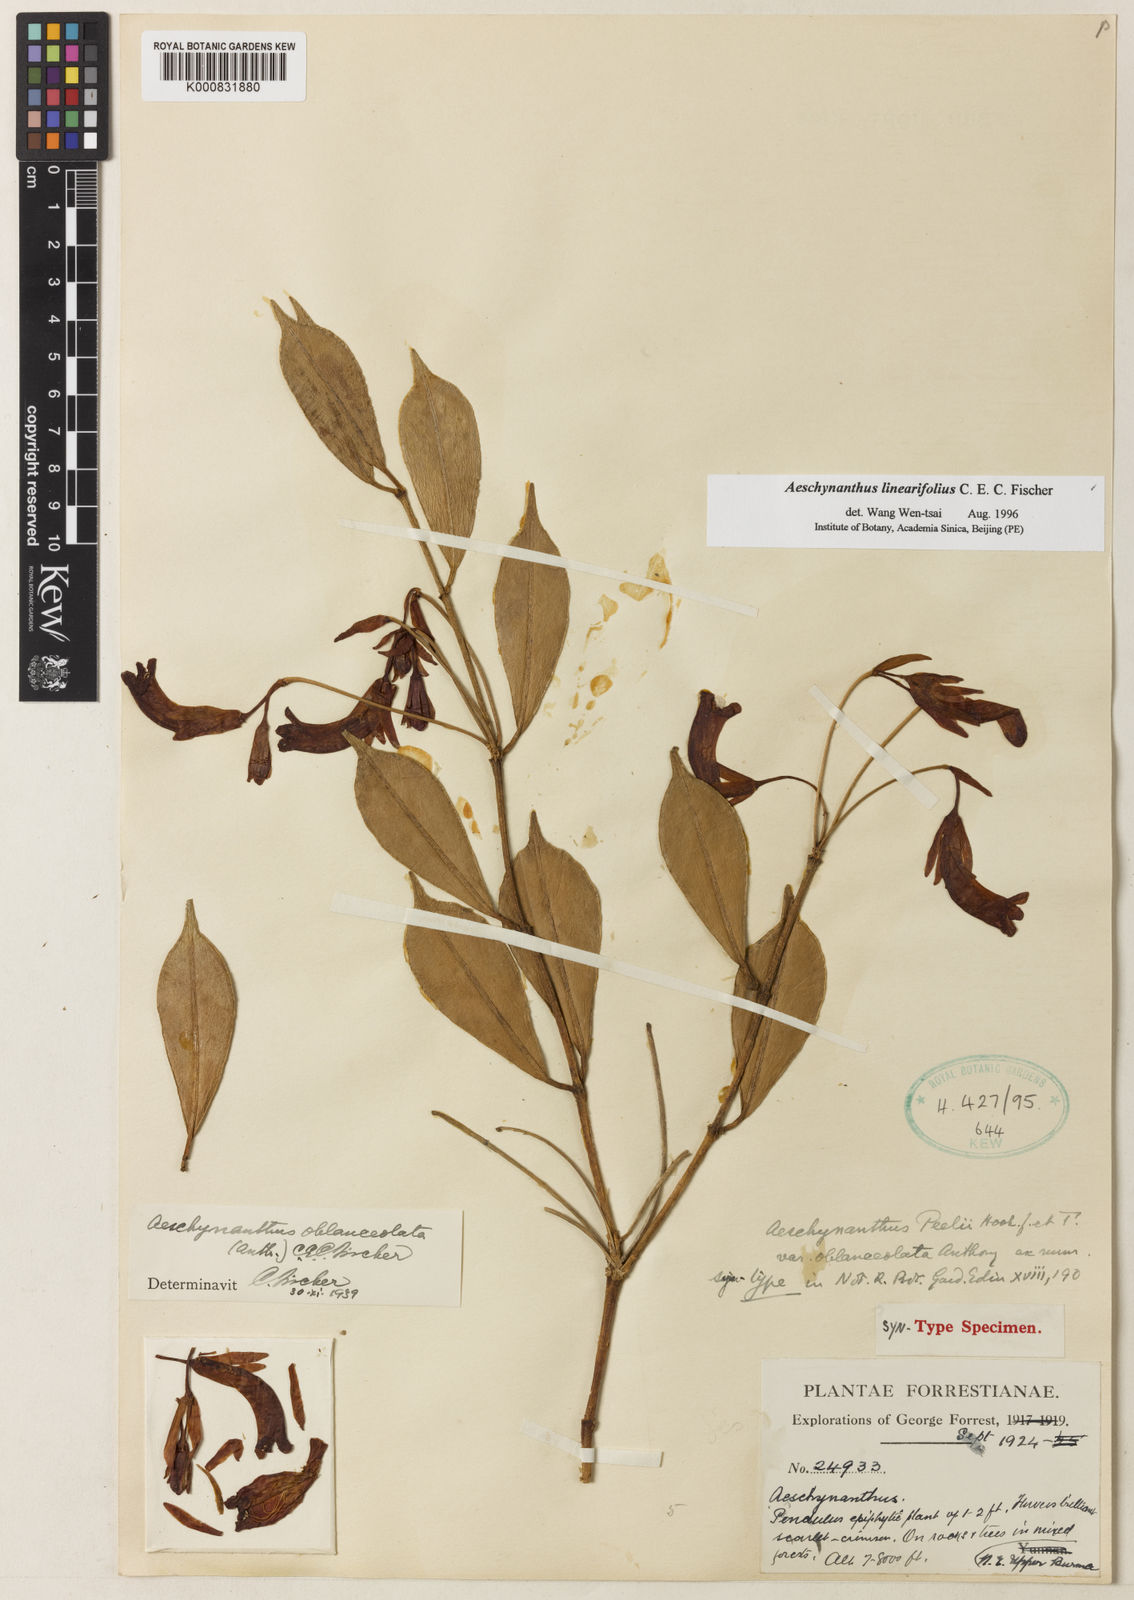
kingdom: Plantae
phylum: Tracheophyta
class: Magnoliopsida
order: Lamiales
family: Gesneriaceae
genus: Aeschynanthus
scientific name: Aeschynanthus linearifolius
